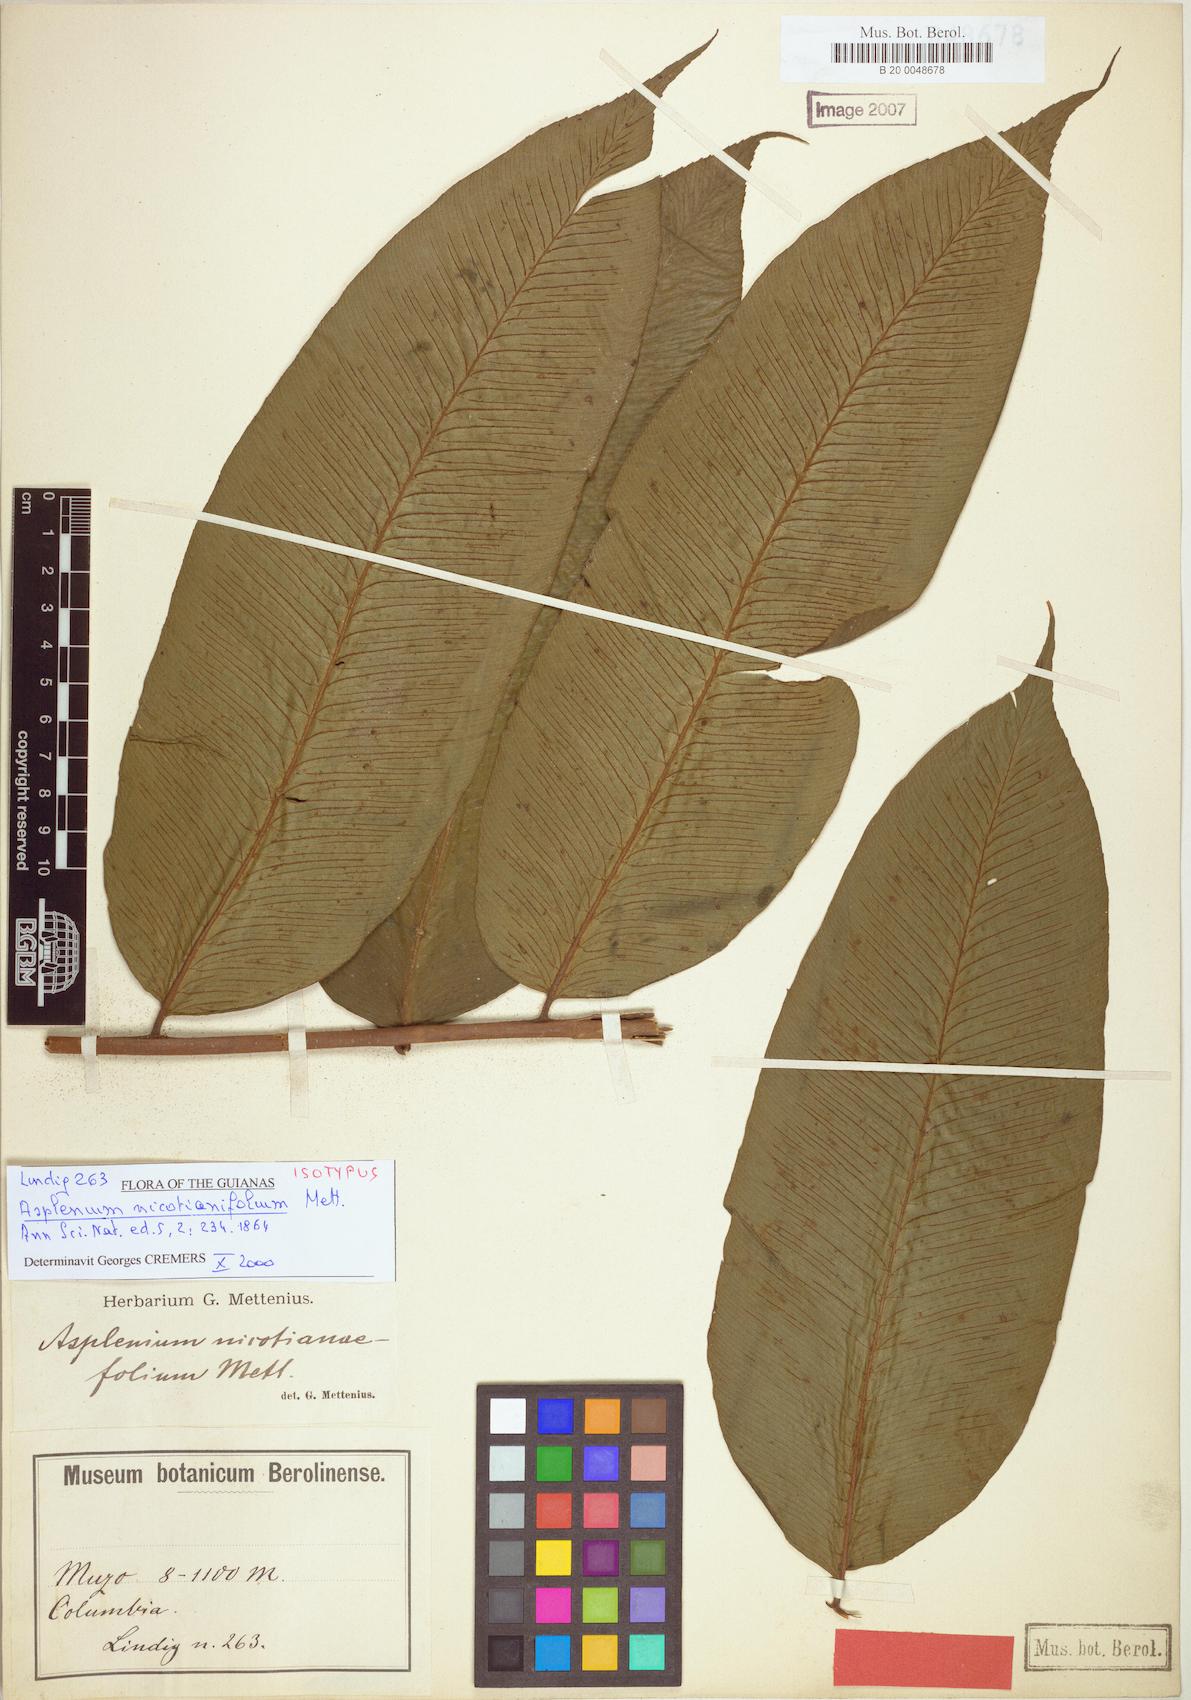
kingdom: Plantae
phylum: Tracheophyta
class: Polypodiopsida
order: Polypodiales
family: Athyriaceae
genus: Diplazium
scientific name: Diplazium nicotianifolium
